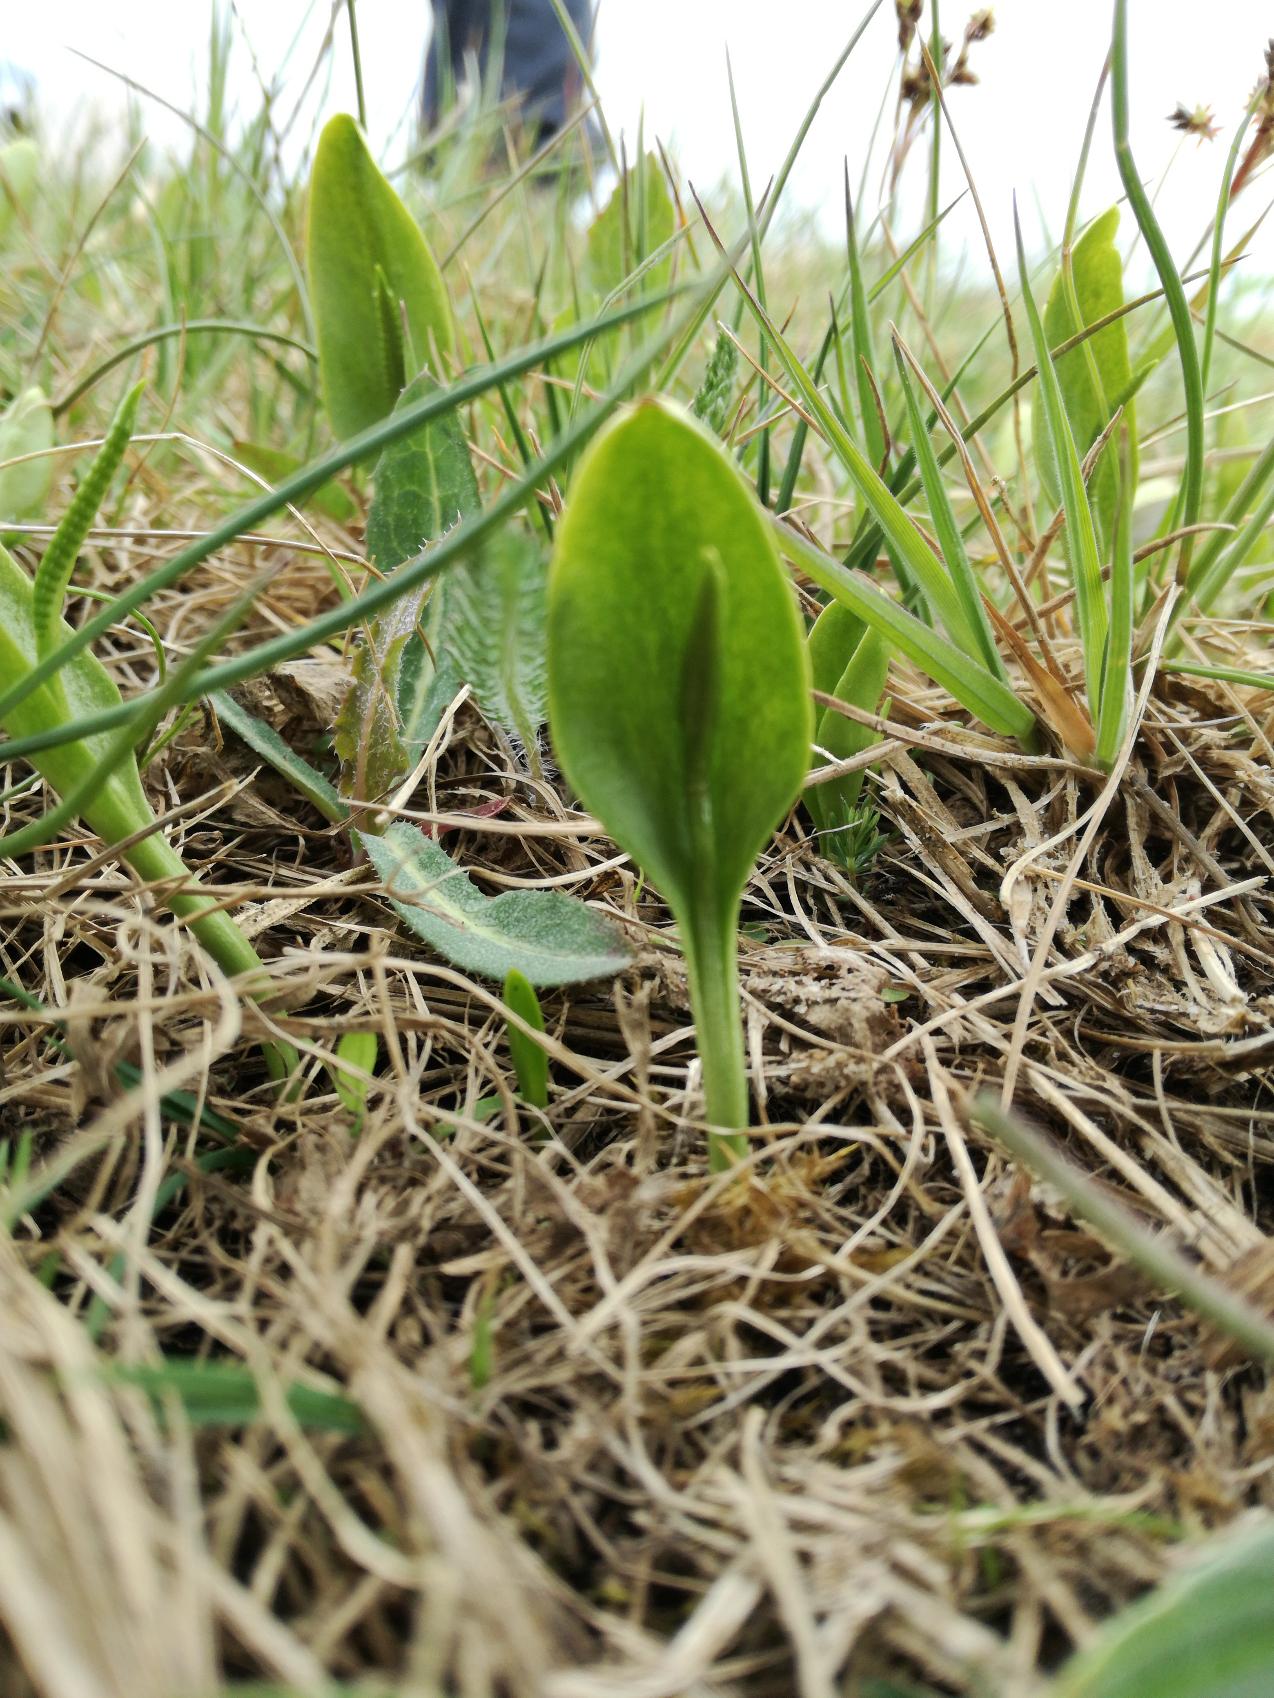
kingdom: Plantae
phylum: Tracheophyta
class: Polypodiopsida
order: Ophioglossales
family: Ophioglossaceae
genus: Ophioglossum
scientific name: Ophioglossum vulgatum
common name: Slangetunge
